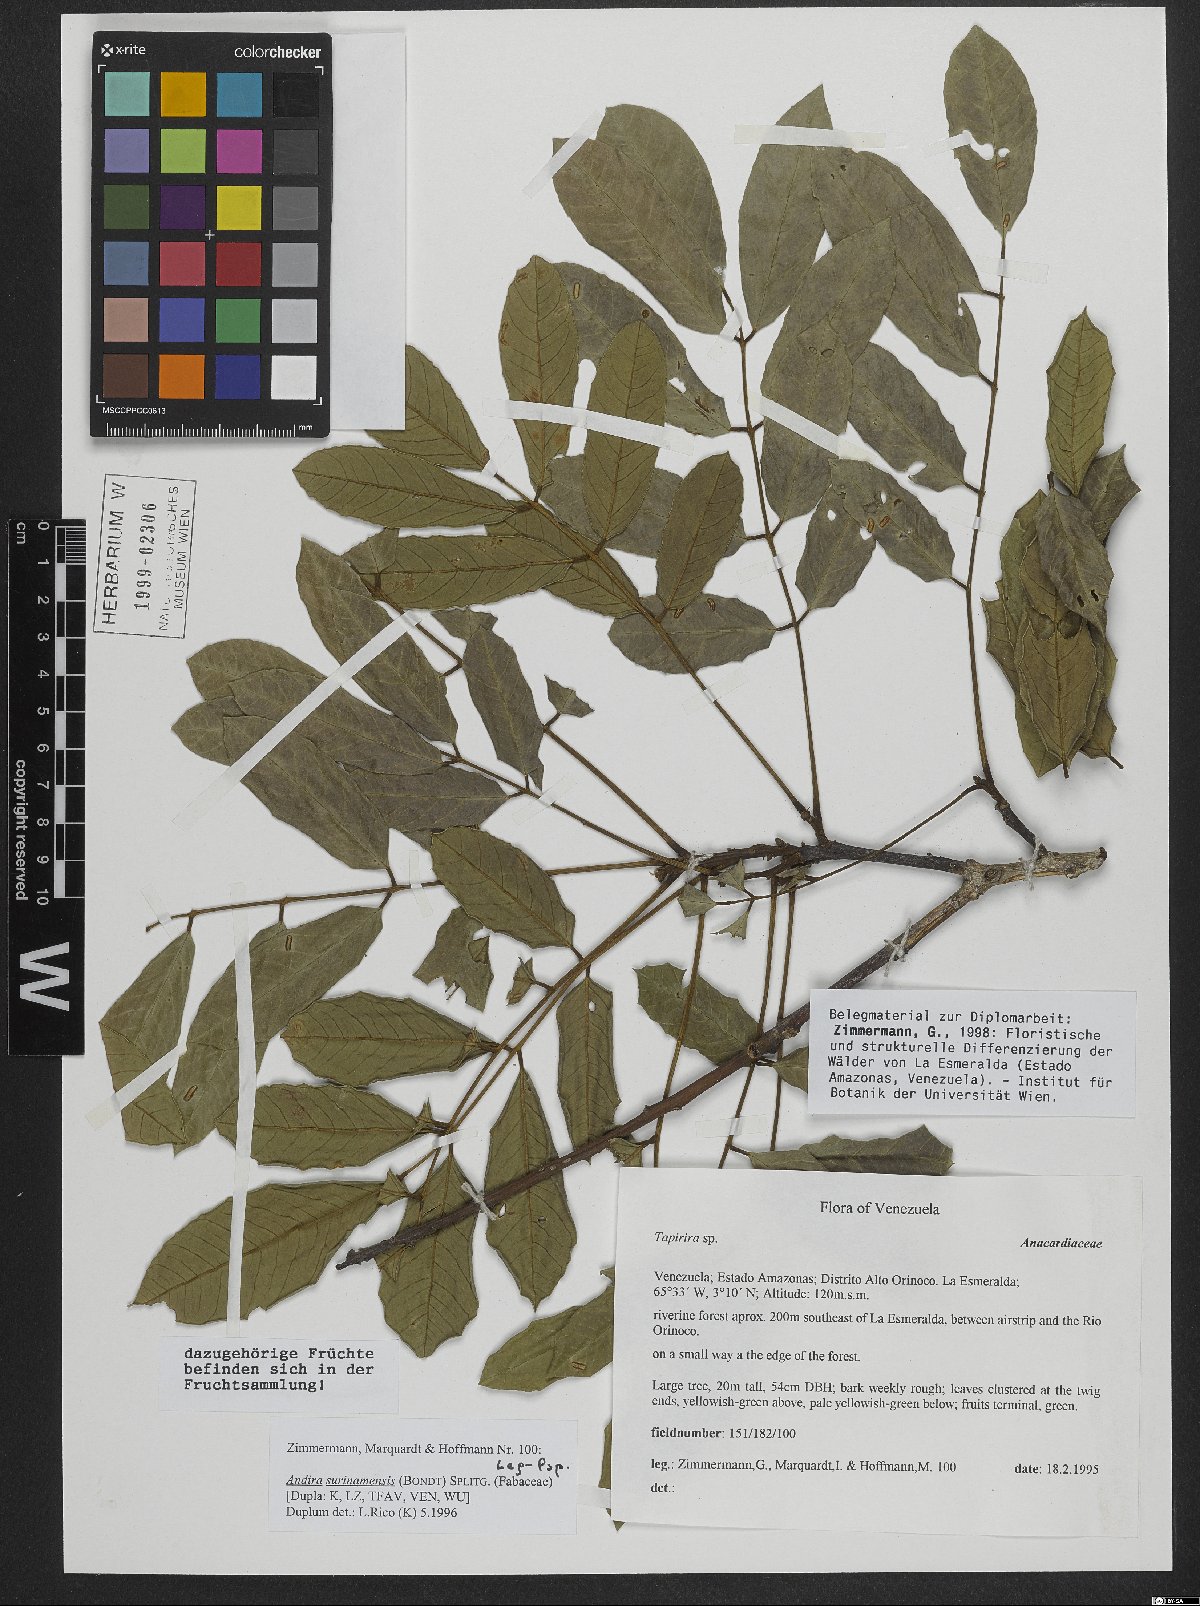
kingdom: Plantae
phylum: Tracheophyta
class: Magnoliopsida
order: Fabales
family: Fabaceae
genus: Andira
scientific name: Andira surinamensis
